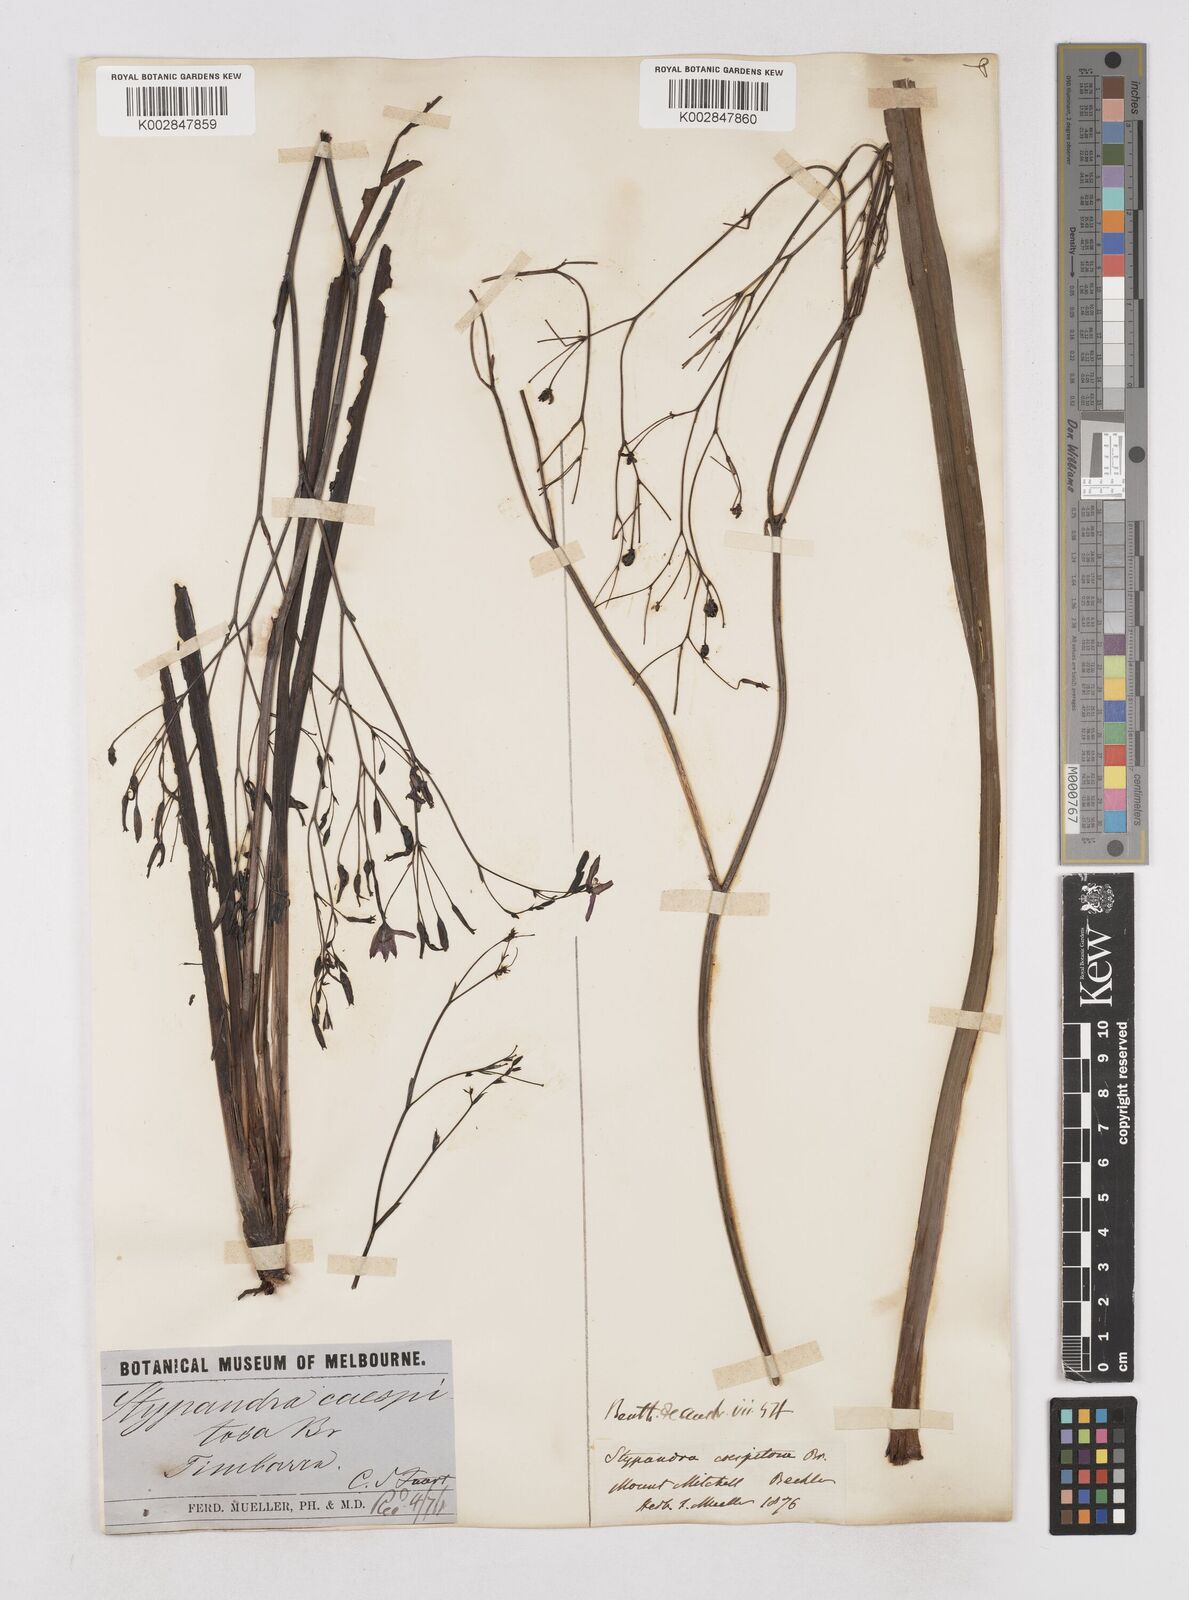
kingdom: Plantae
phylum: Tracheophyta
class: Liliopsida
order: Asparagales
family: Asphodelaceae
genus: Thelionema
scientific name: Thelionema caespitosum
